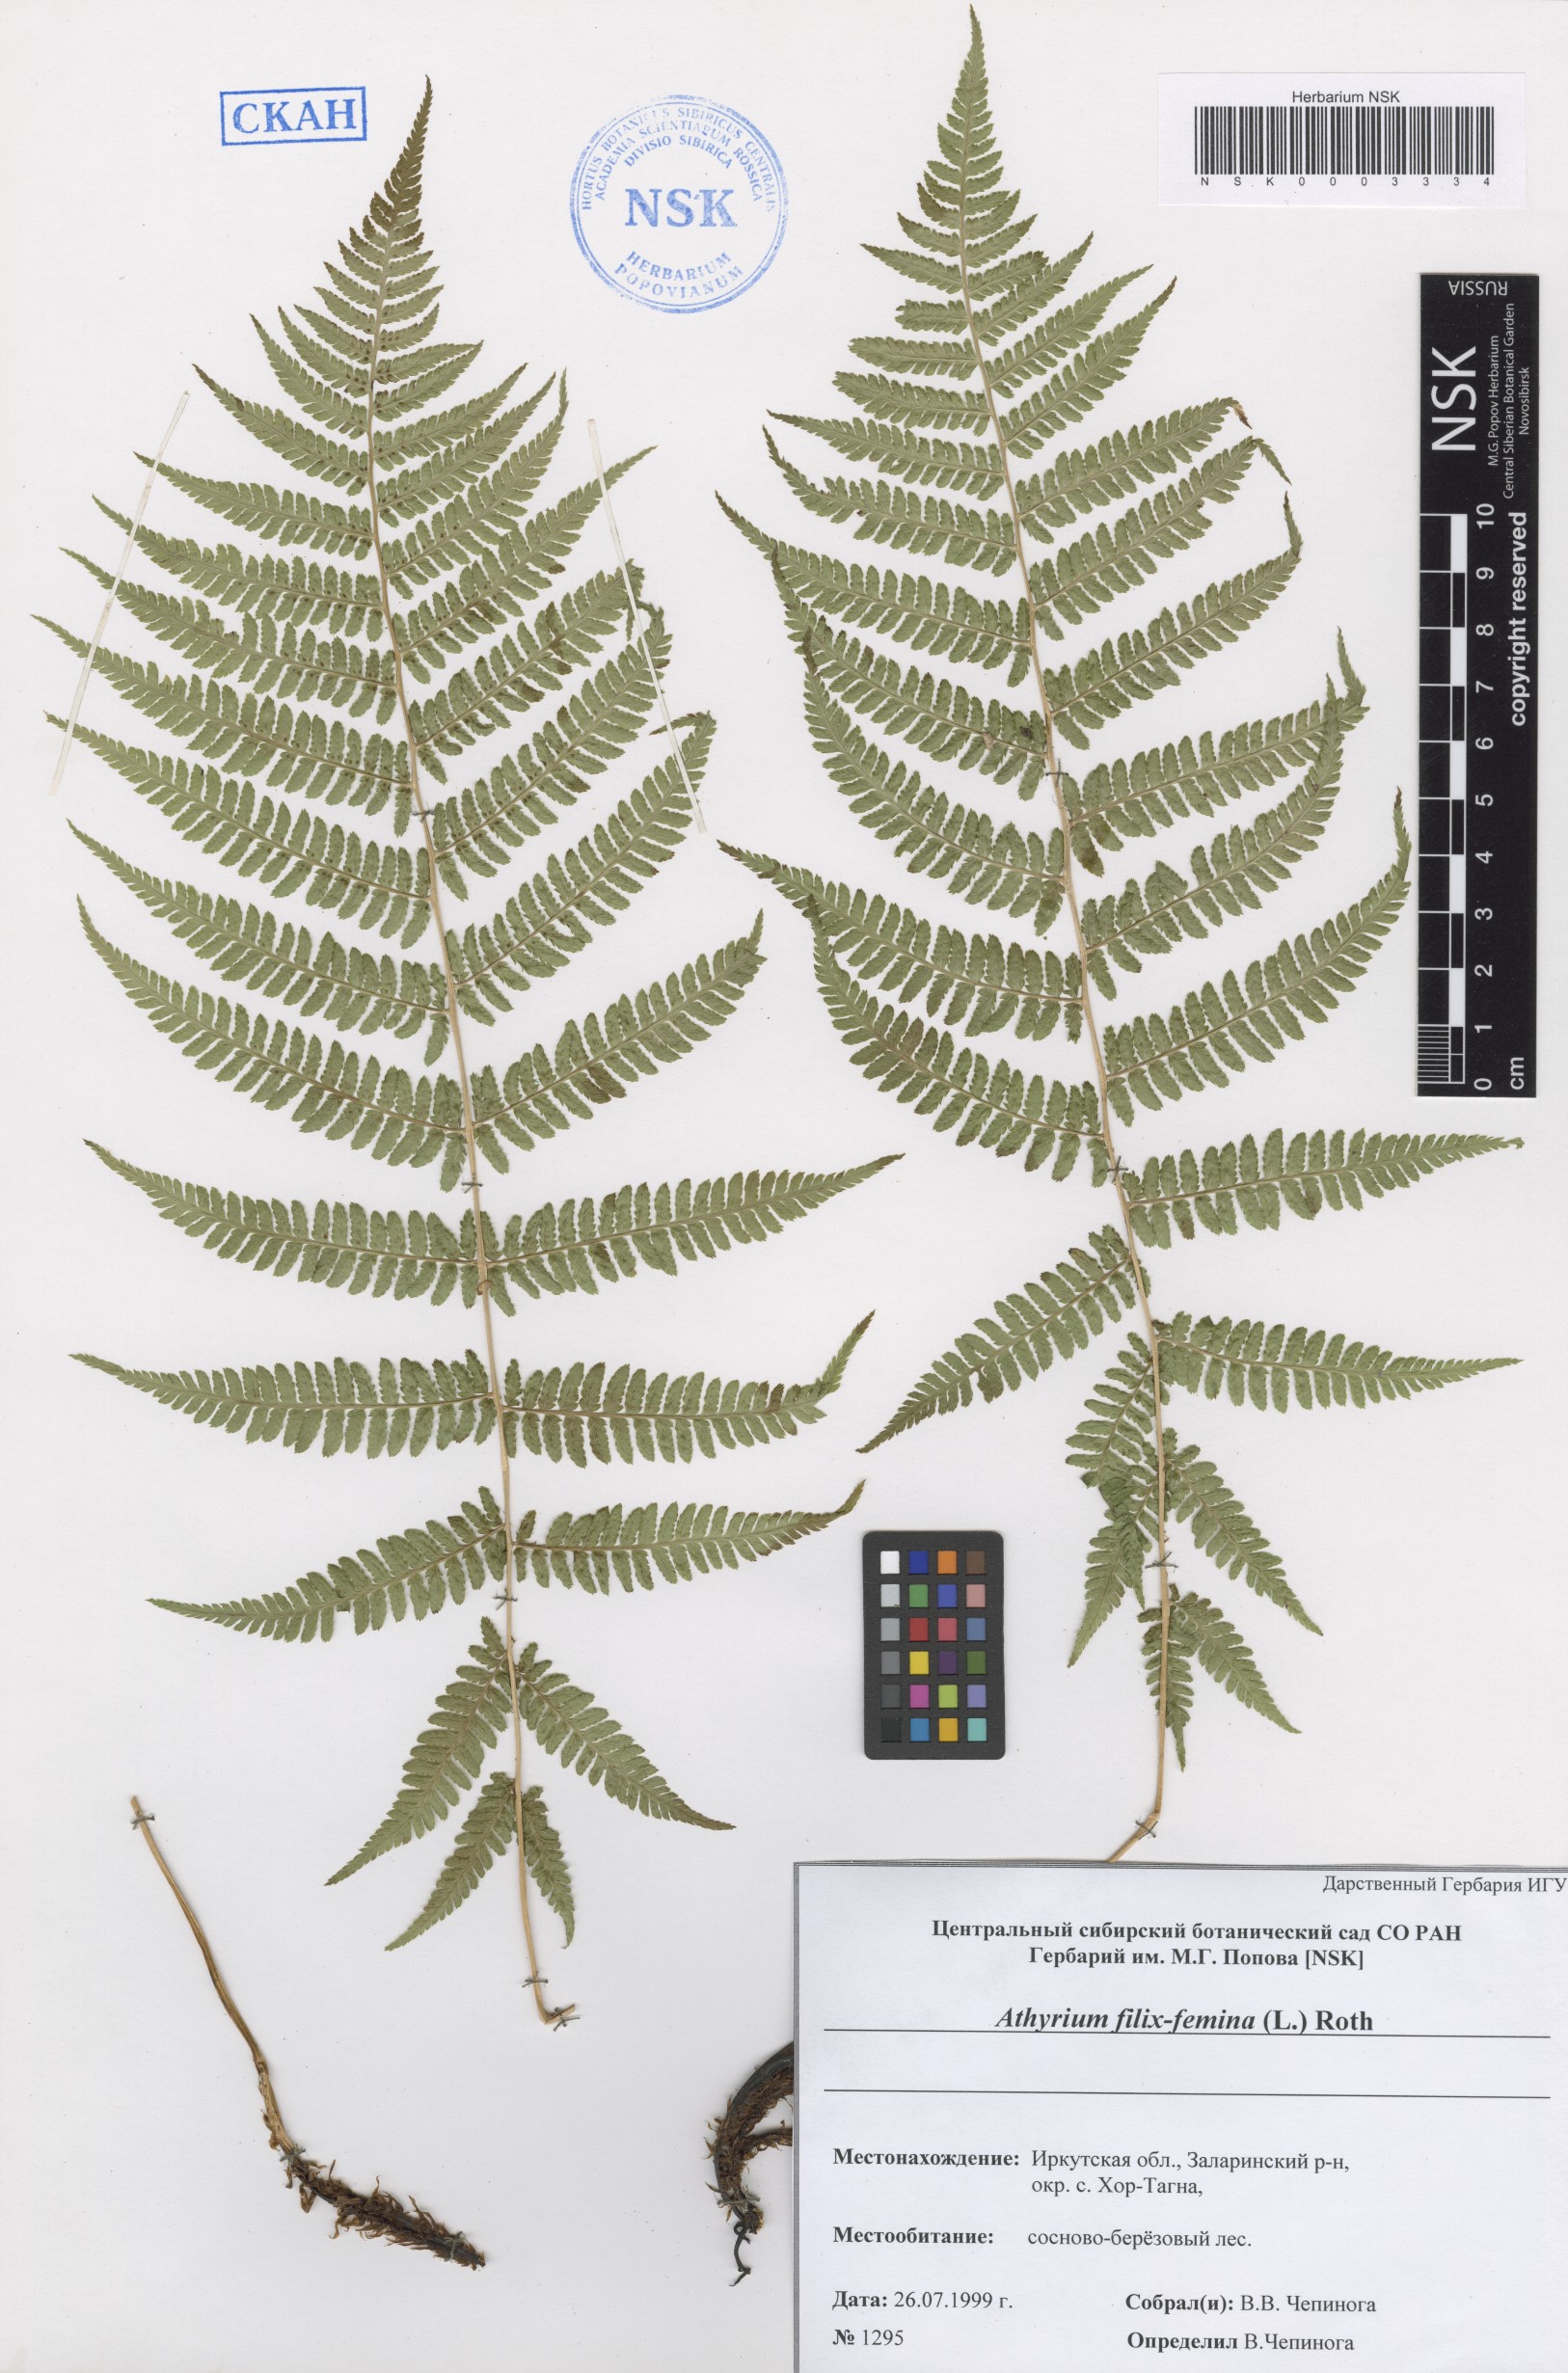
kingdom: Plantae
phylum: Tracheophyta
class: Polypodiopsida
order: Polypodiales
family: Athyriaceae
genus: Athyrium
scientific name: Athyrium filix-femina
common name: Lady fern
